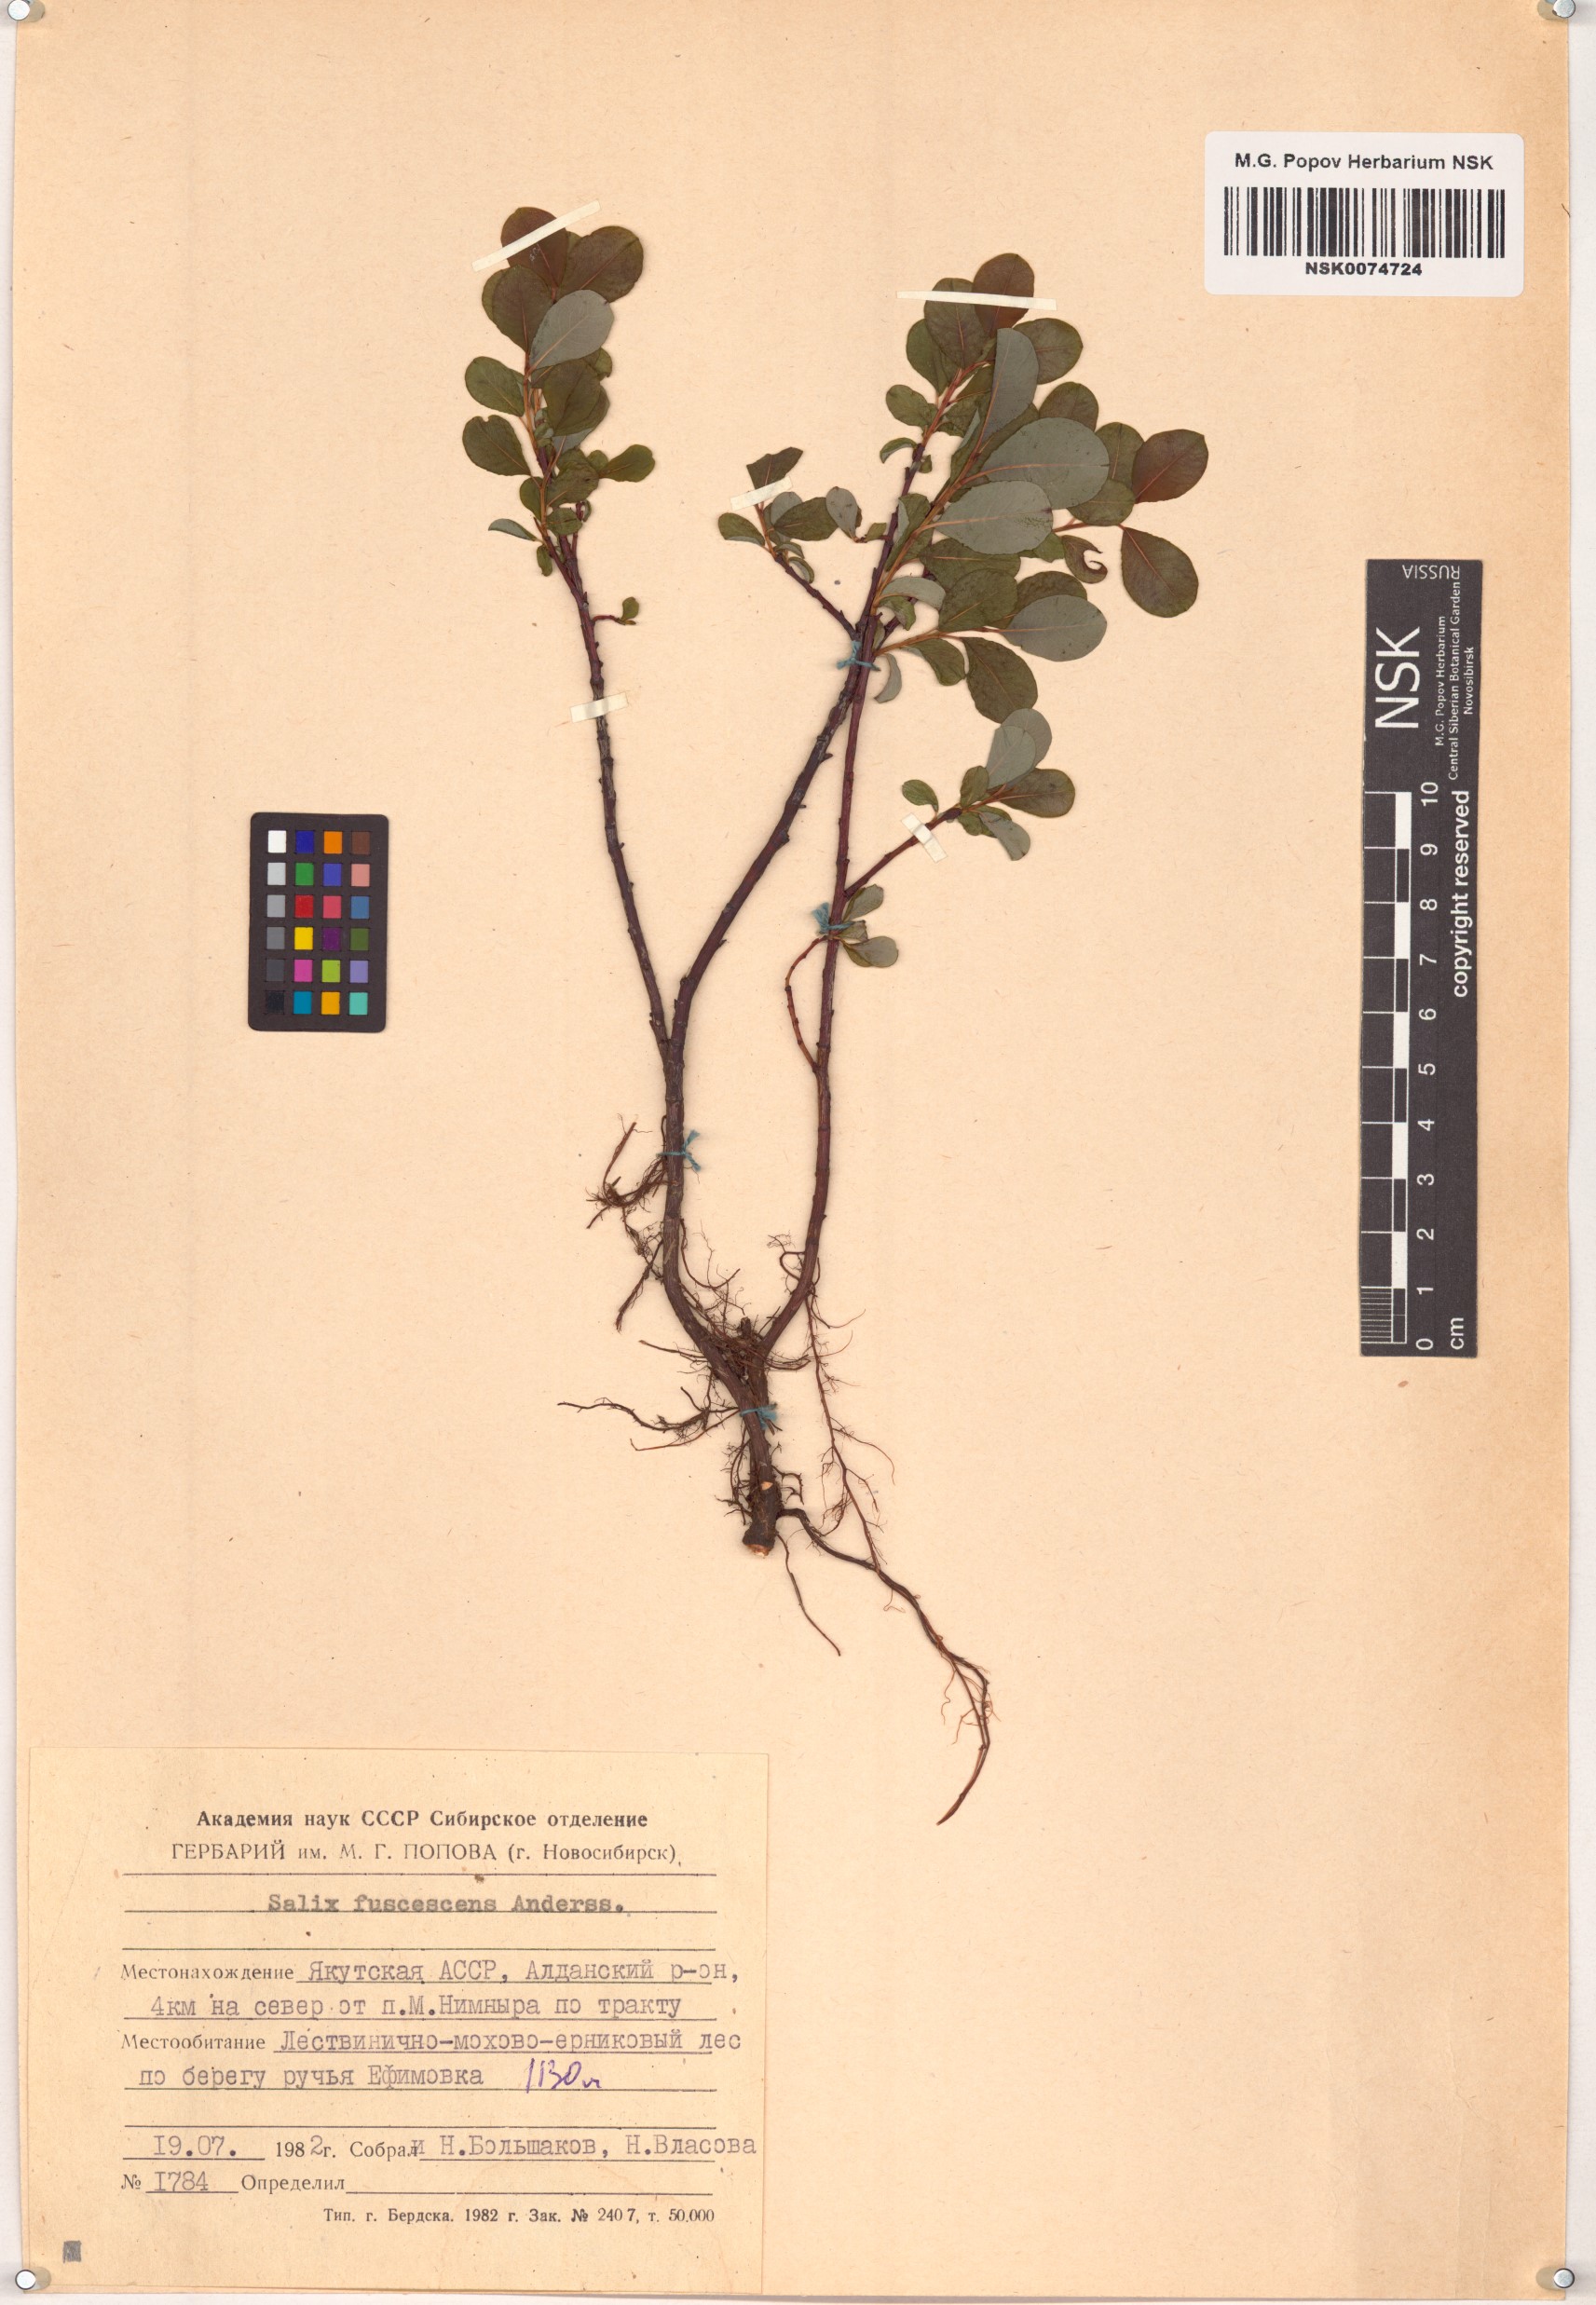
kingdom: Plantae
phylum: Tracheophyta
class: Magnoliopsida
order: Malpighiales
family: Salicaceae
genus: Salix
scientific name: Salix fuscescens
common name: Brownish willow
